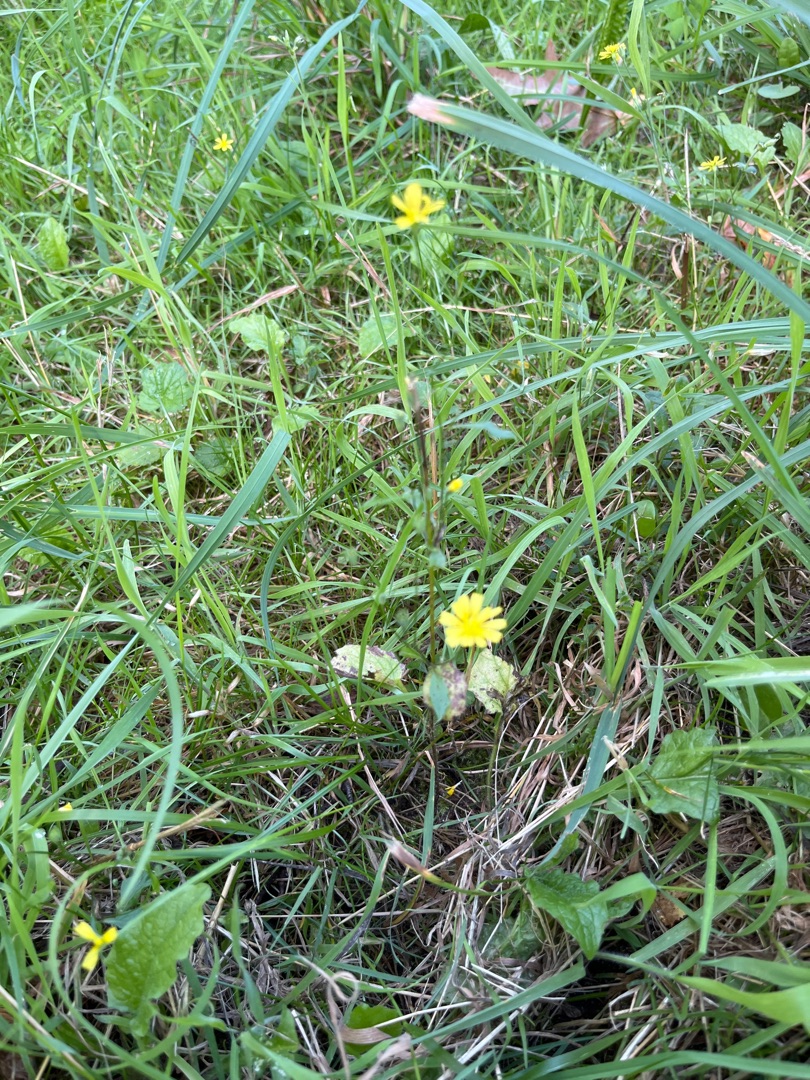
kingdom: Plantae
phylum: Tracheophyta
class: Magnoliopsida
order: Asterales
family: Asteraceae
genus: Lapsana
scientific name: Lapsana communis
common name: Haremad
